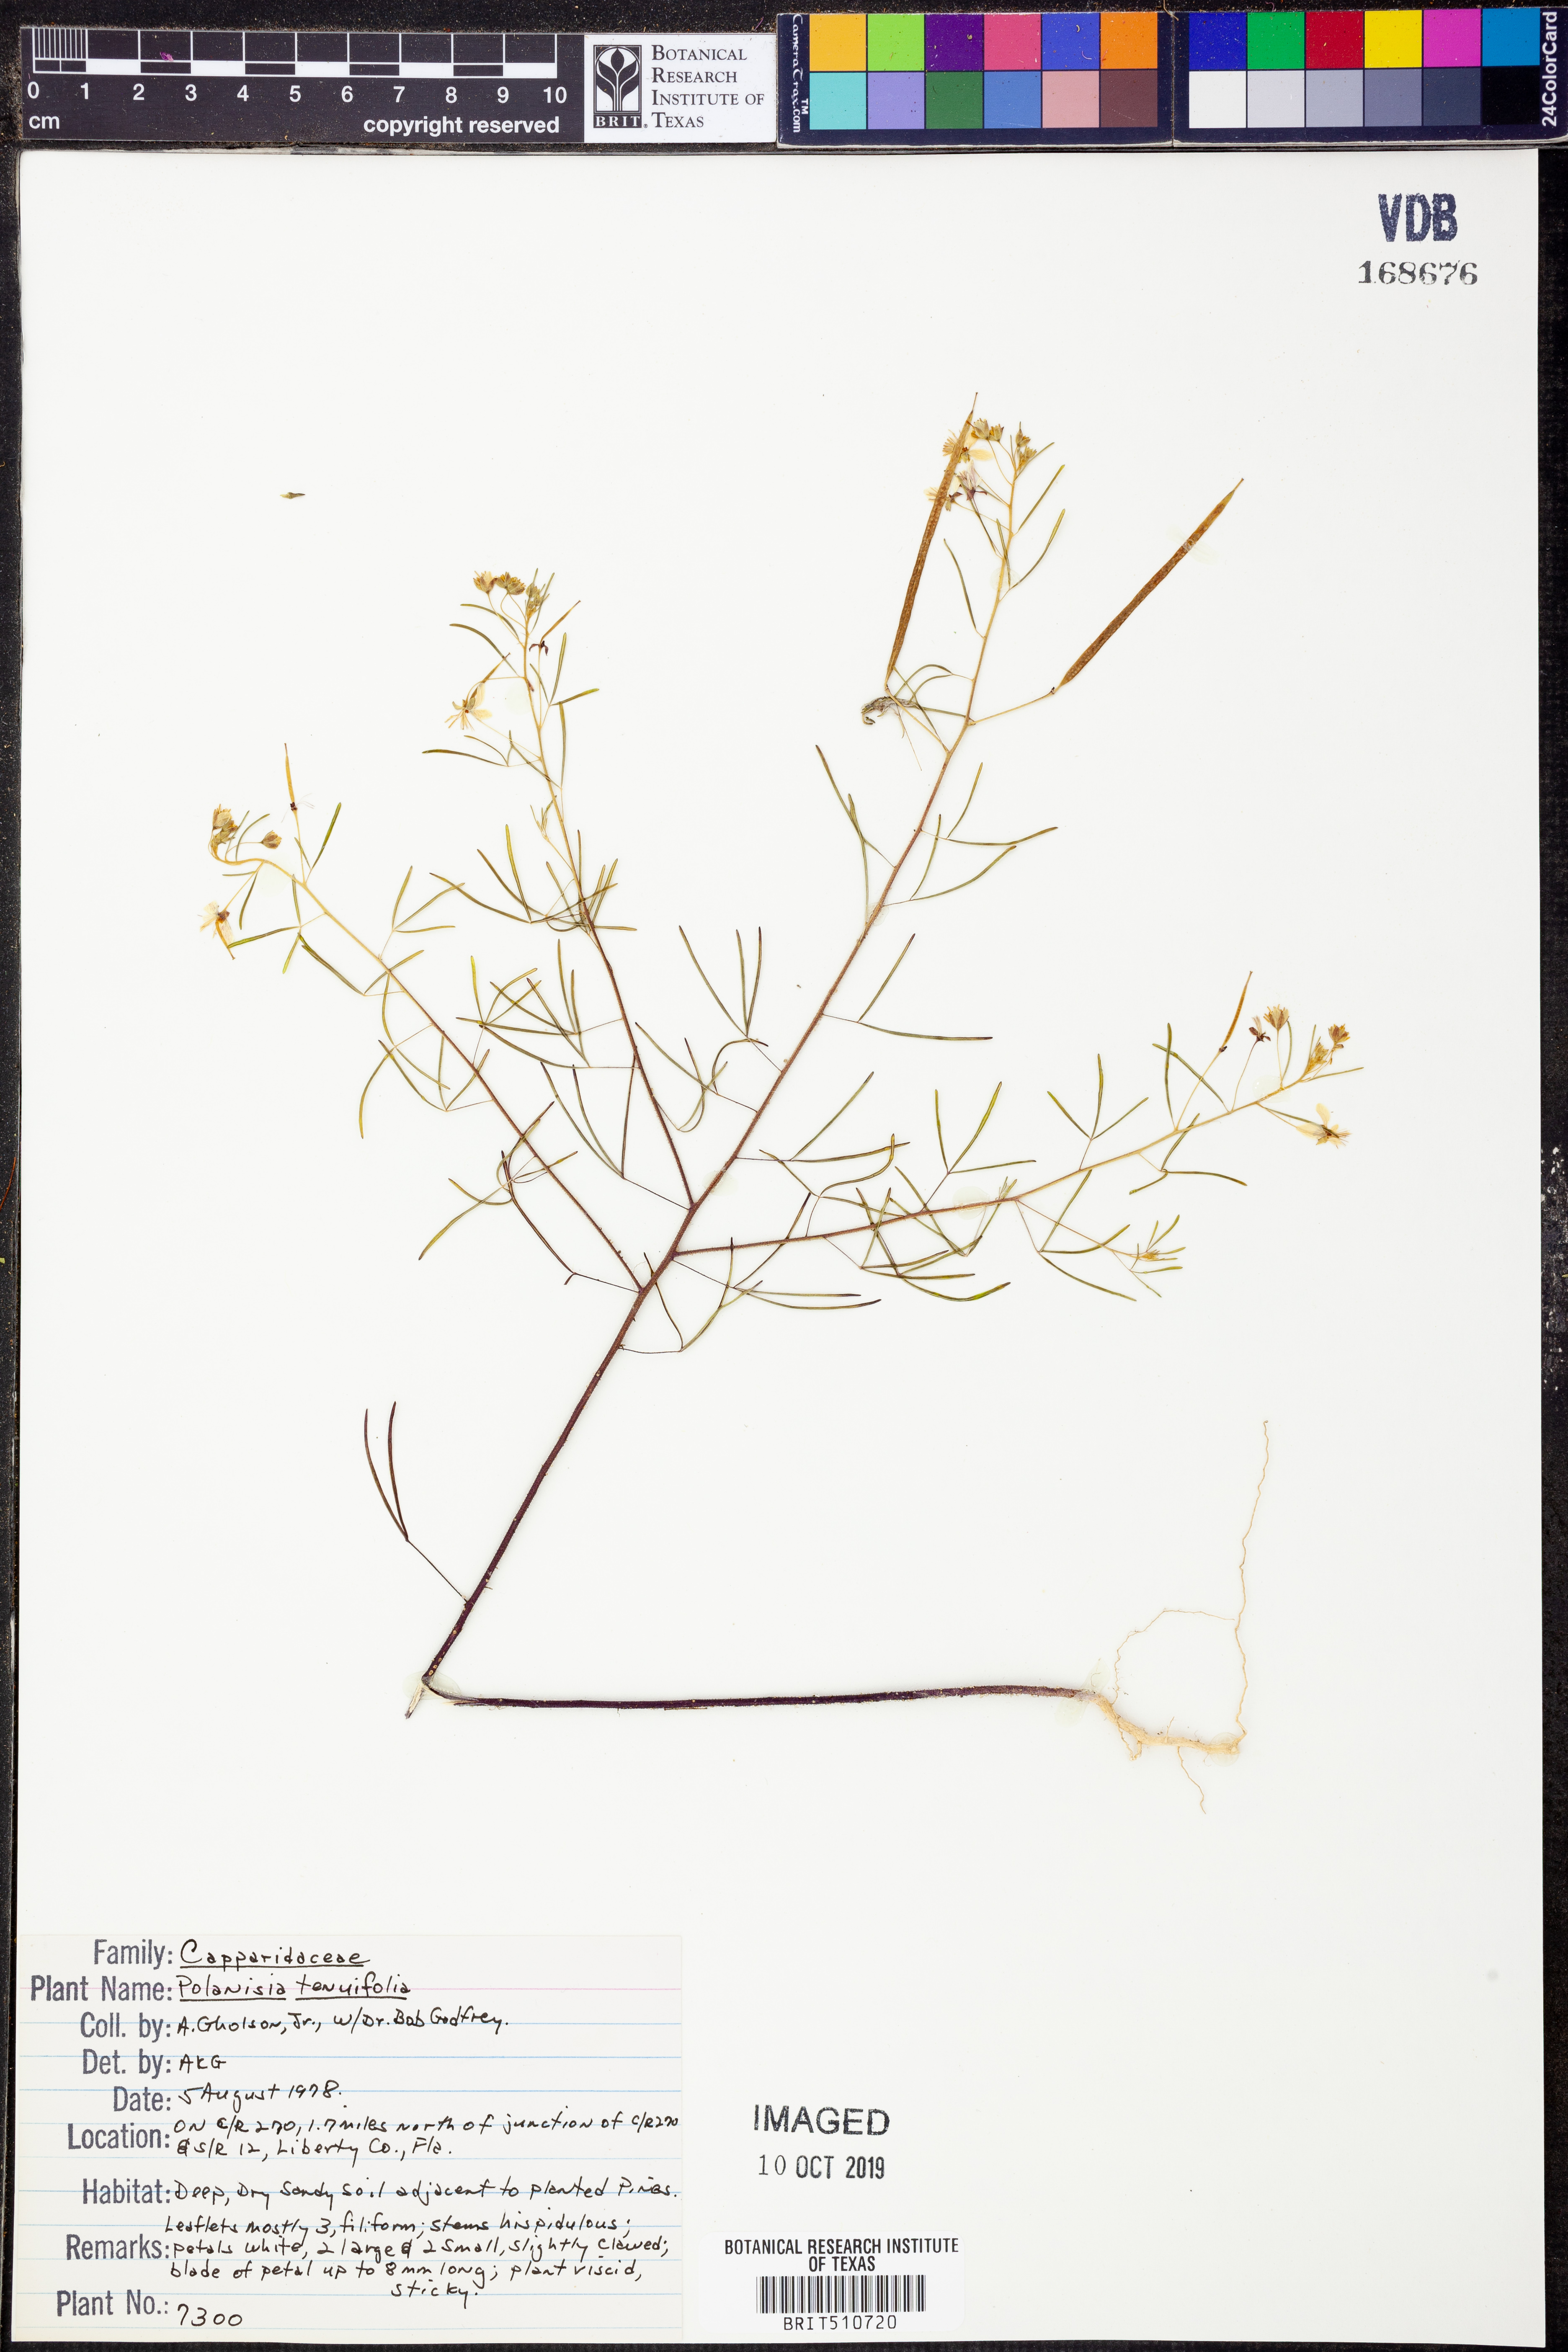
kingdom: Plantae
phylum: Tracheophyta
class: Magnoliopsida
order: Brassicales
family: Cleomaceae
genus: Polanisia
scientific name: Polanisia tenuifolia
